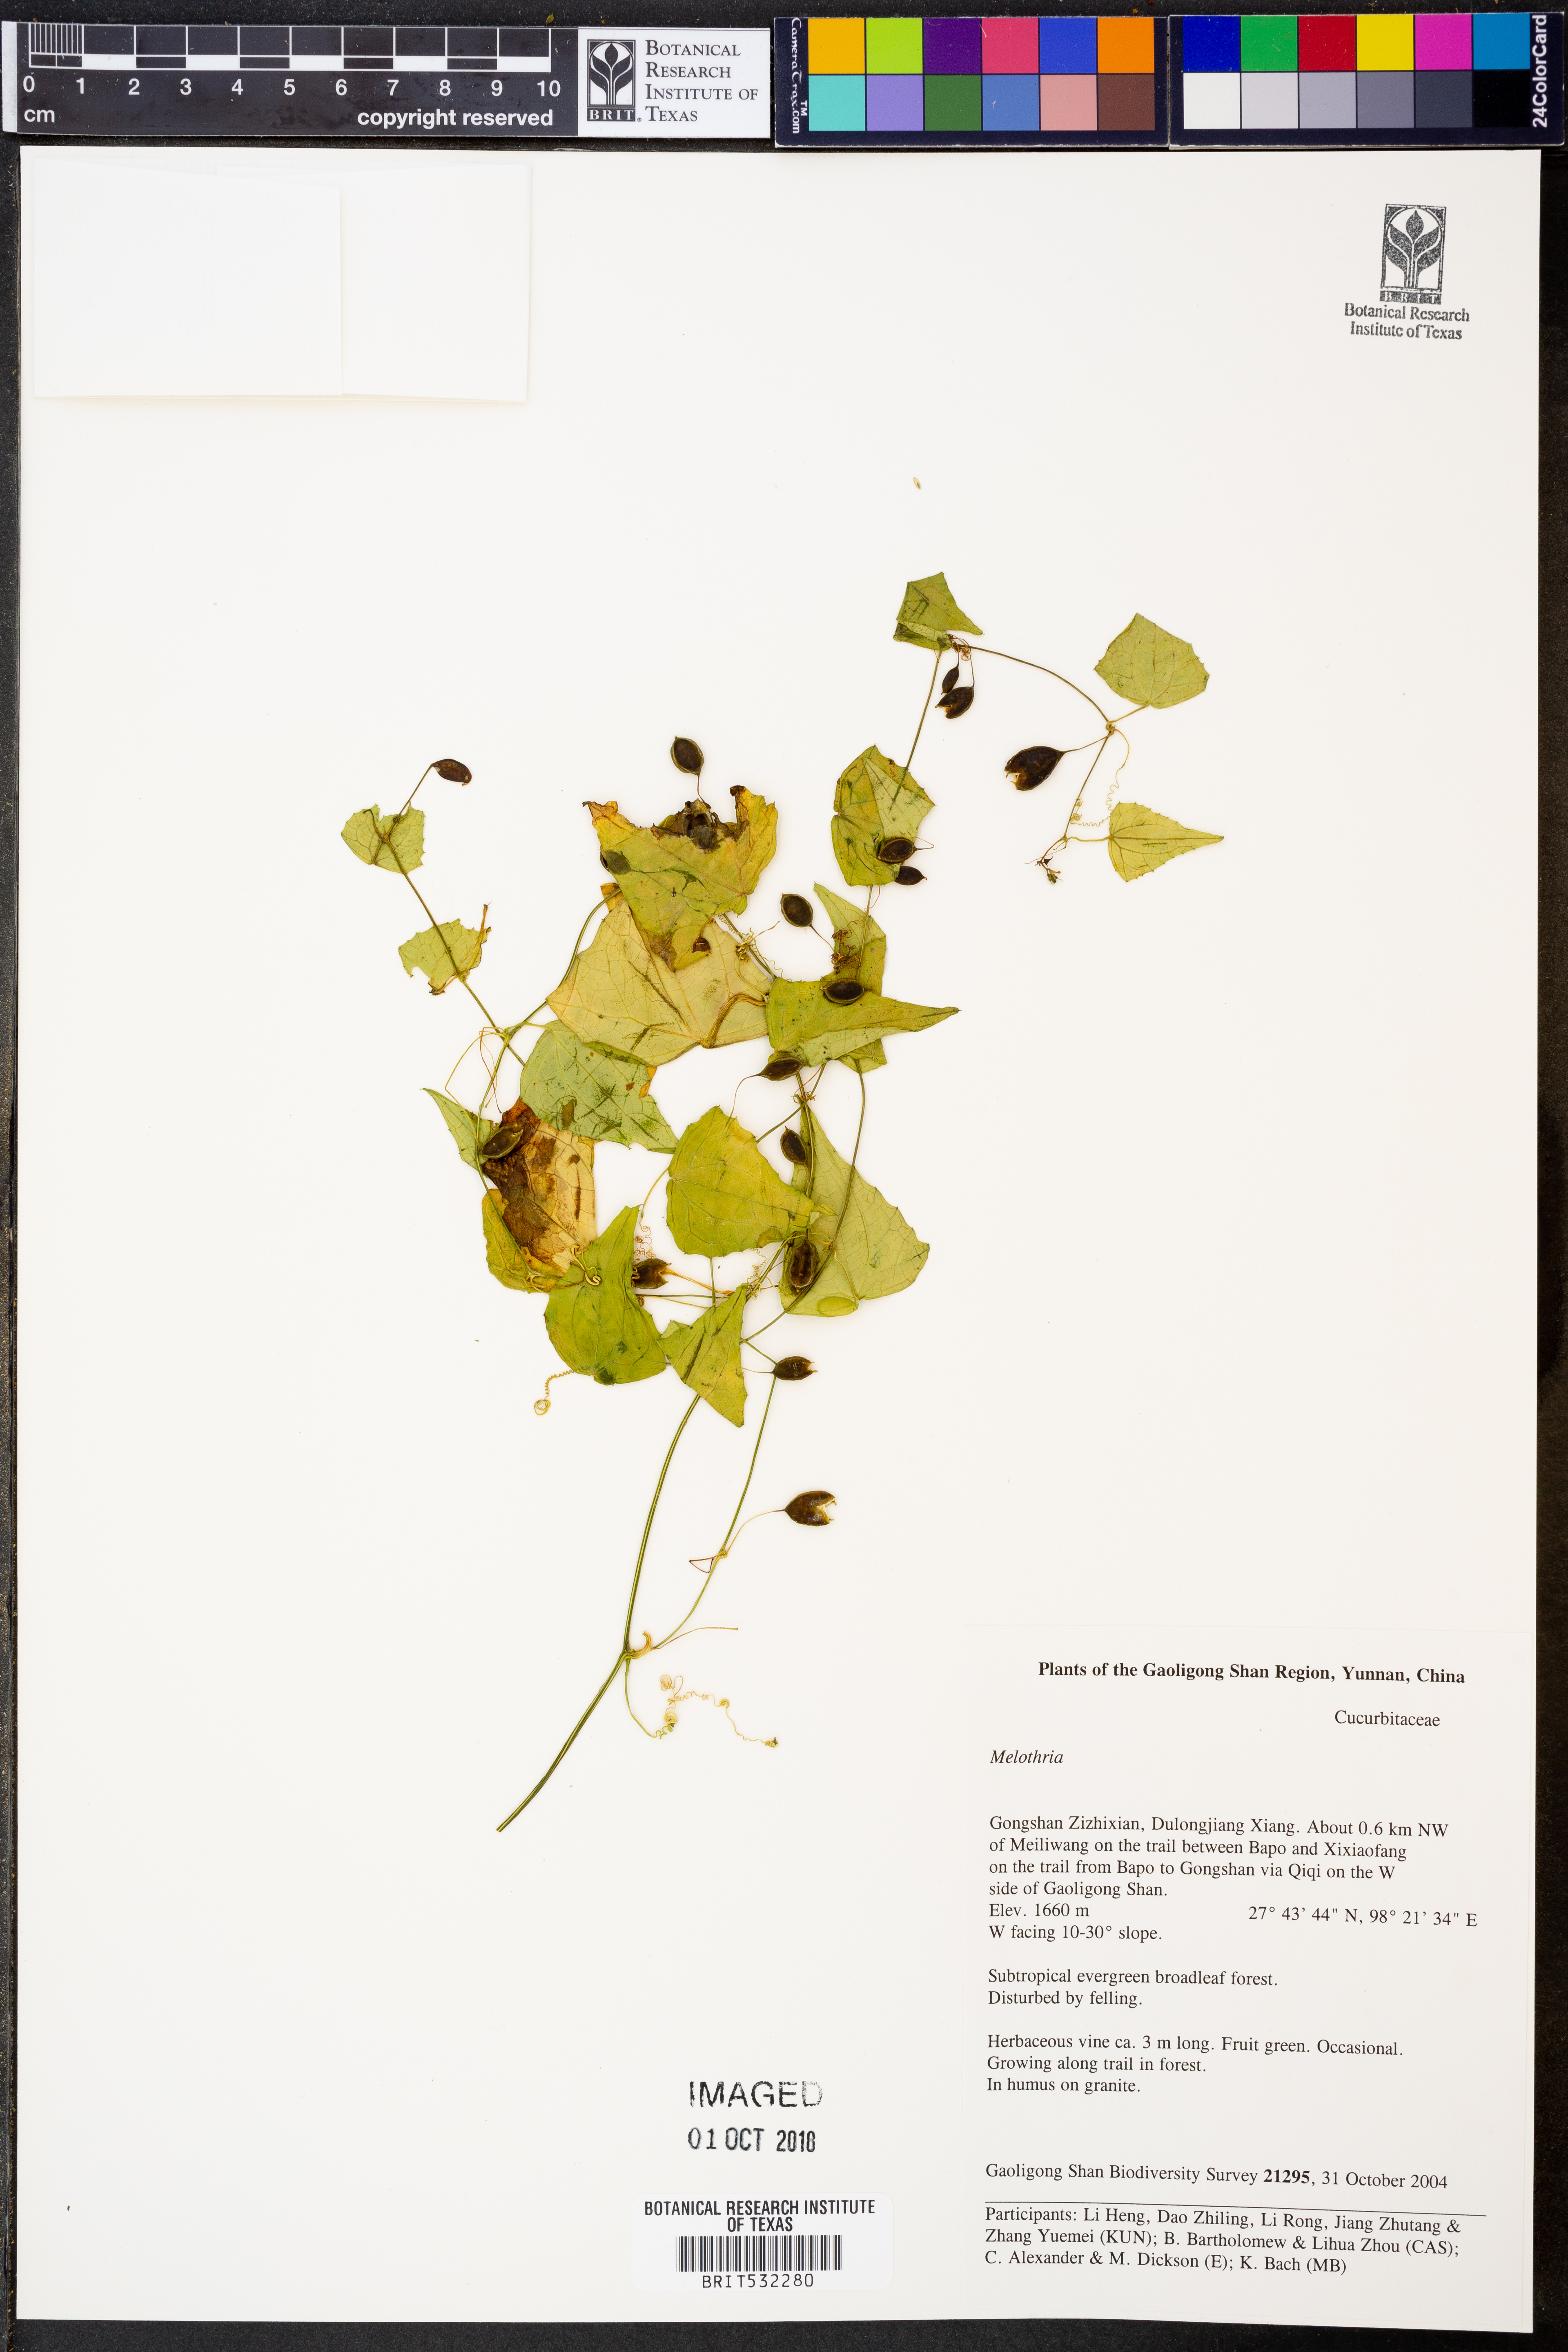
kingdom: Plantae
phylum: Tracheophyta
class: Magnoliopsida
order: Cucurbitales
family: Cucurbitaceae
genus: Melothria
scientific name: Melothria
